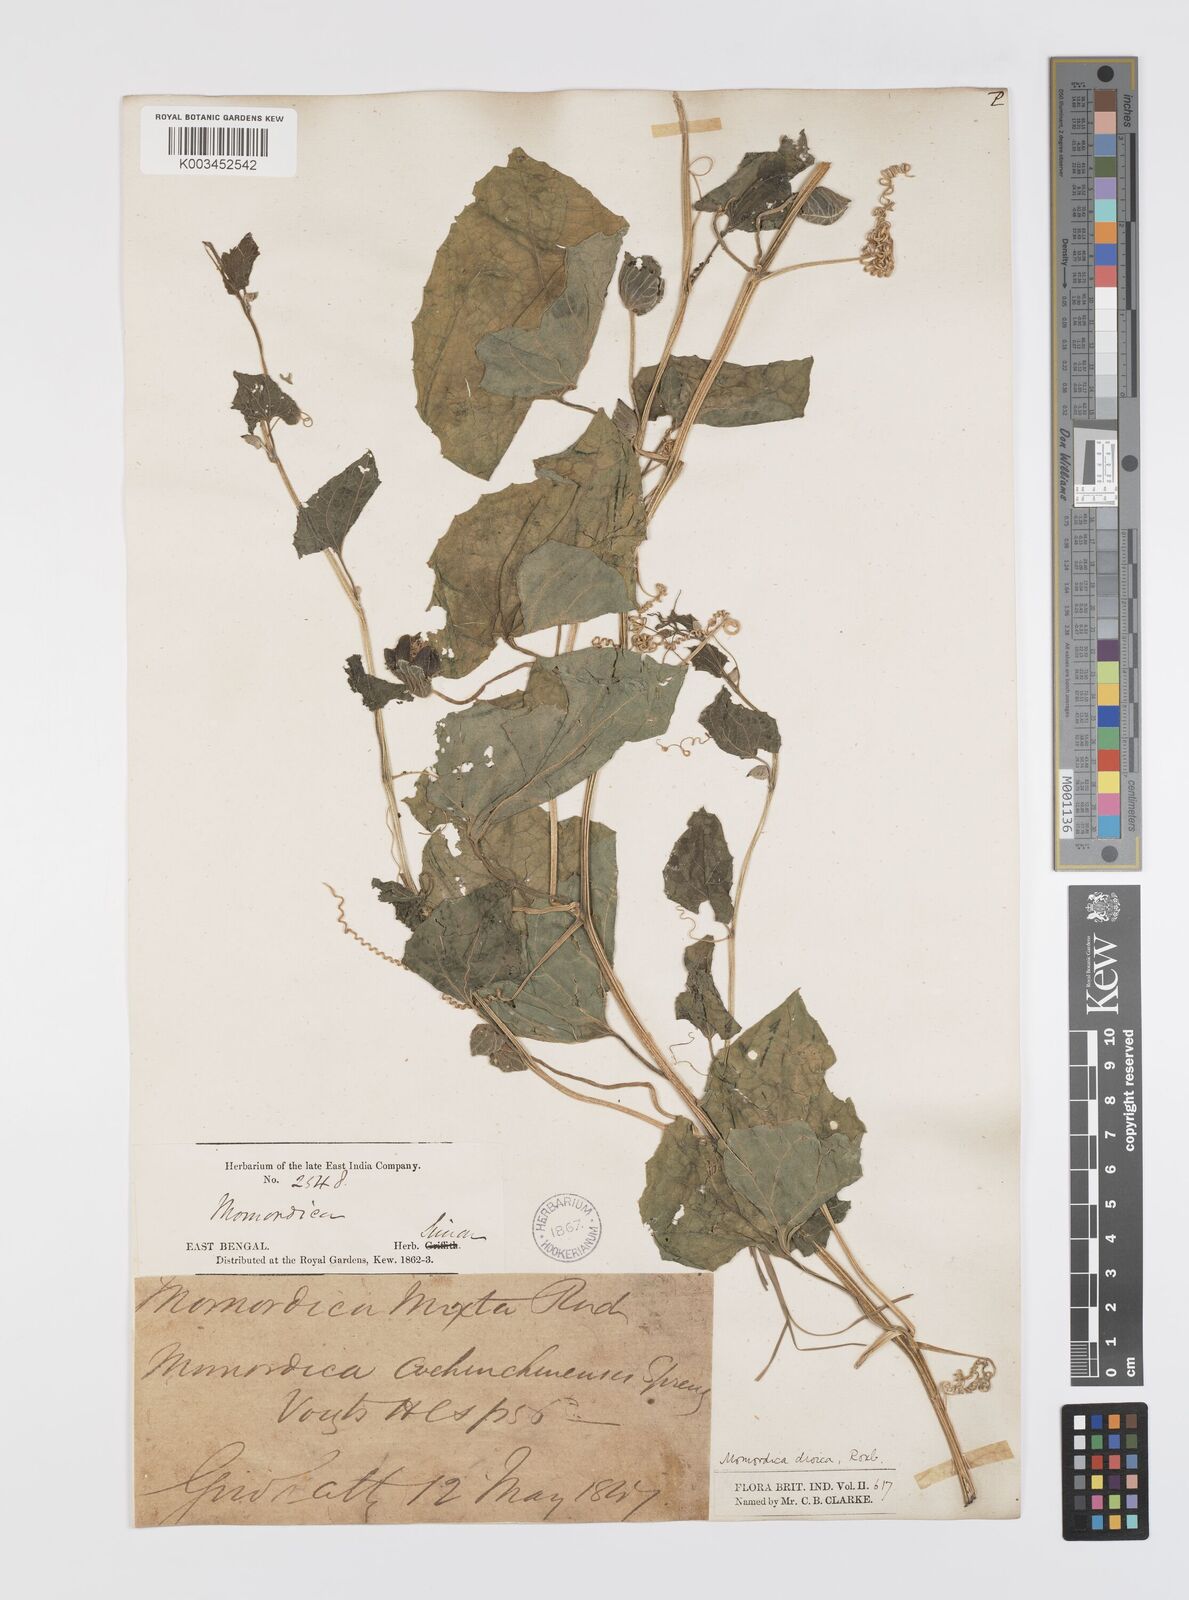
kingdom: Plantae
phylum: Tracheophyta
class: Magnoliopsida
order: Cucurbitales
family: Cucurbitaceae
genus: Momordica
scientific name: Momordica dioica
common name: Spine gourd
